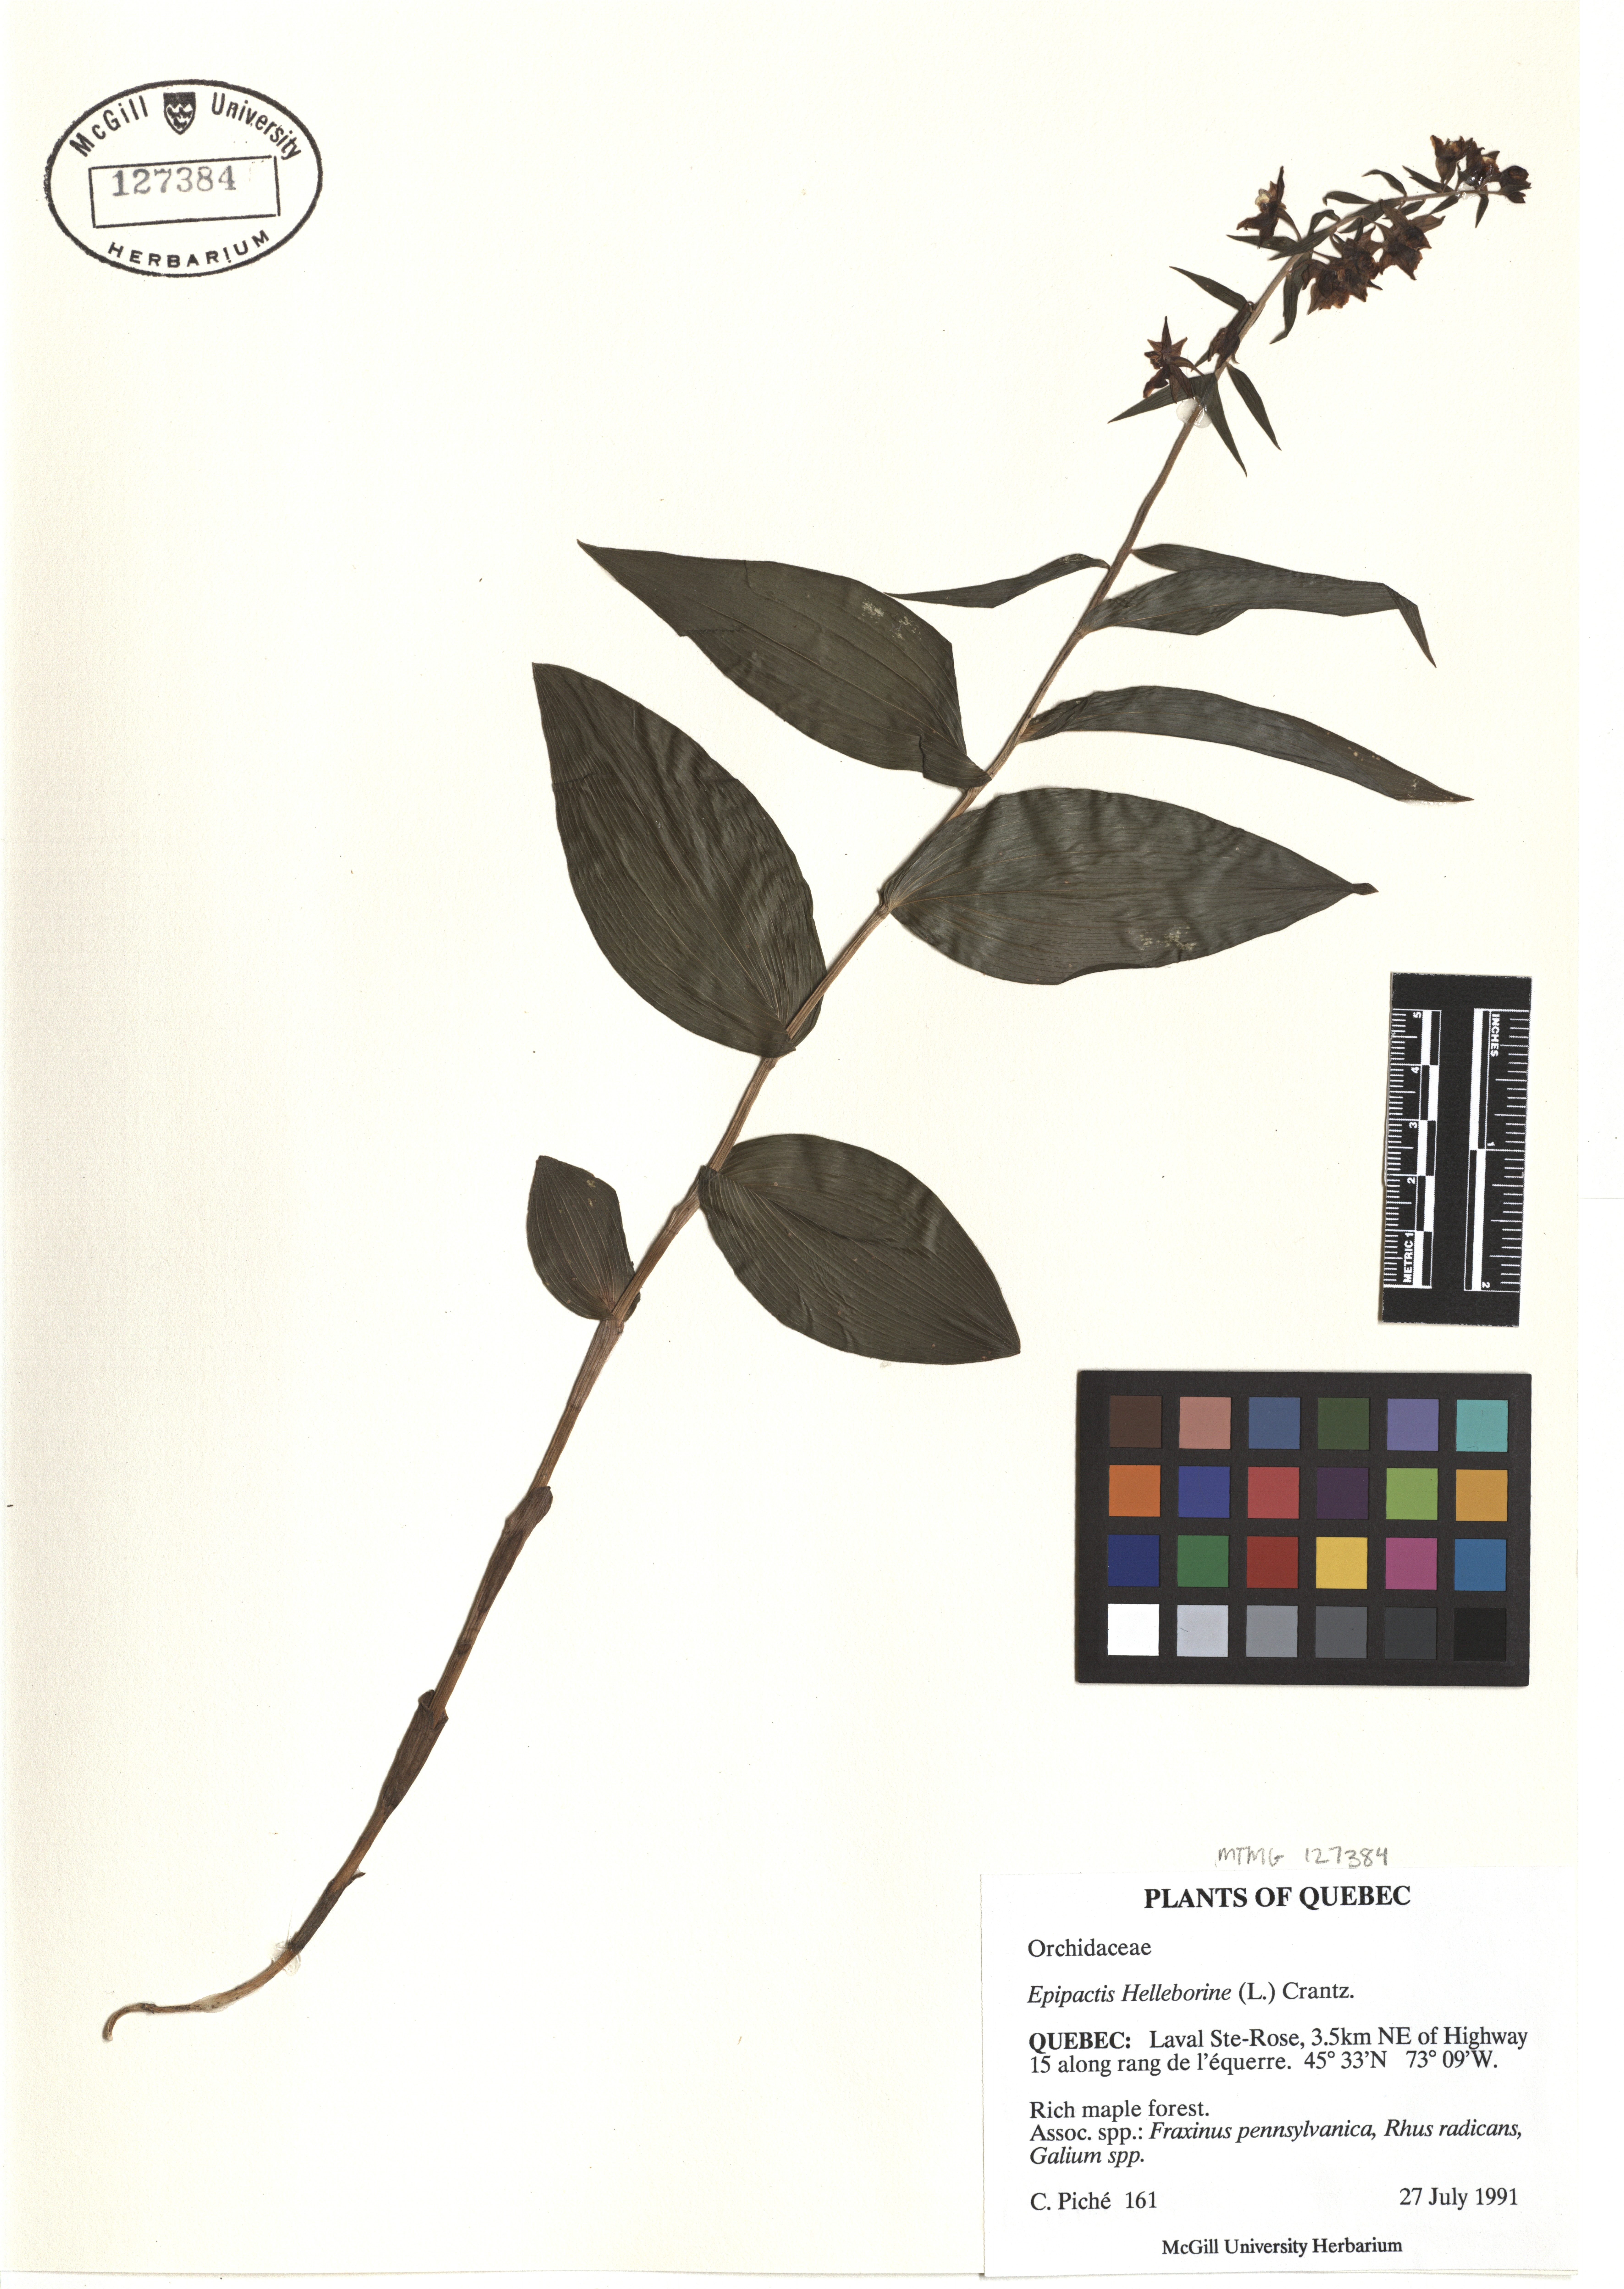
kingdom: Plantae
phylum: Tracheophyta
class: Liliopsida
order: Asparagales
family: Orchidaceae
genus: Epipactis
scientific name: Epipactis helleborine
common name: Broad-leaved helleborine
